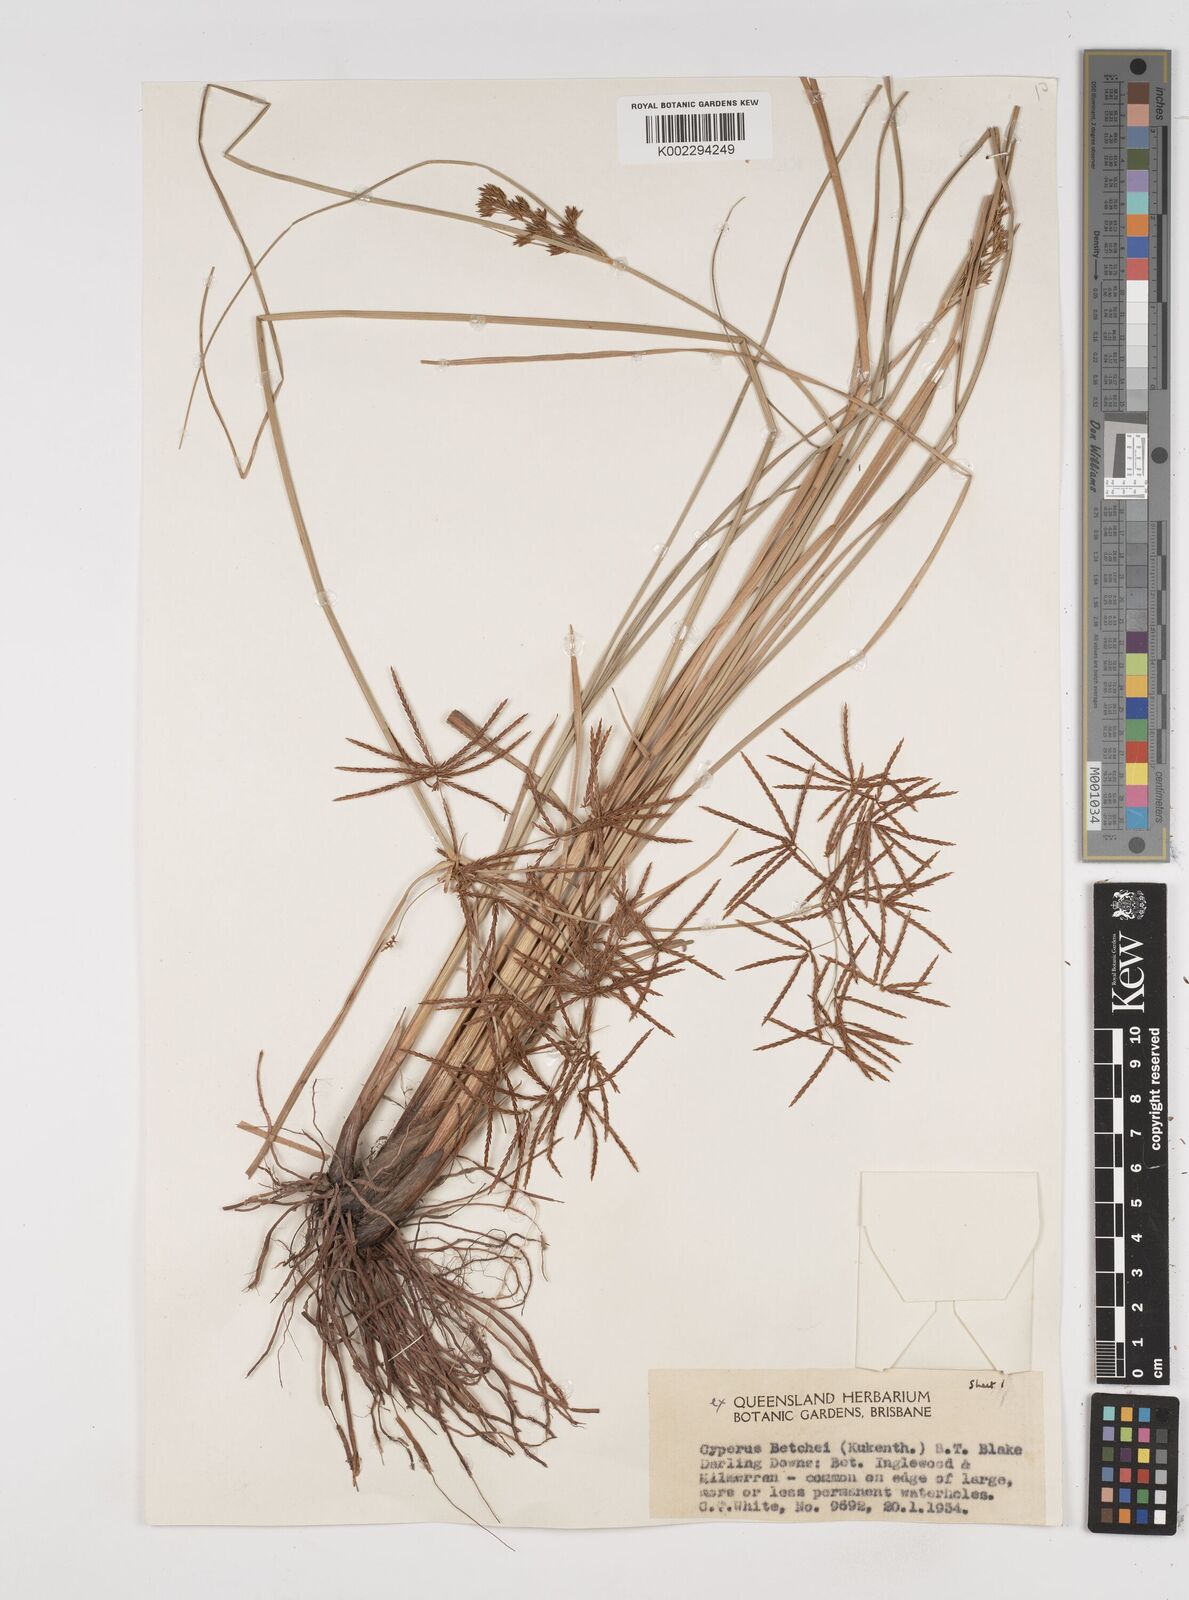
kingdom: Plantae
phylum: Tracheophyta
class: Liliopsida
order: Poales
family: Cyperaceae
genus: Cyperus
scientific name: Cyperus betchei
